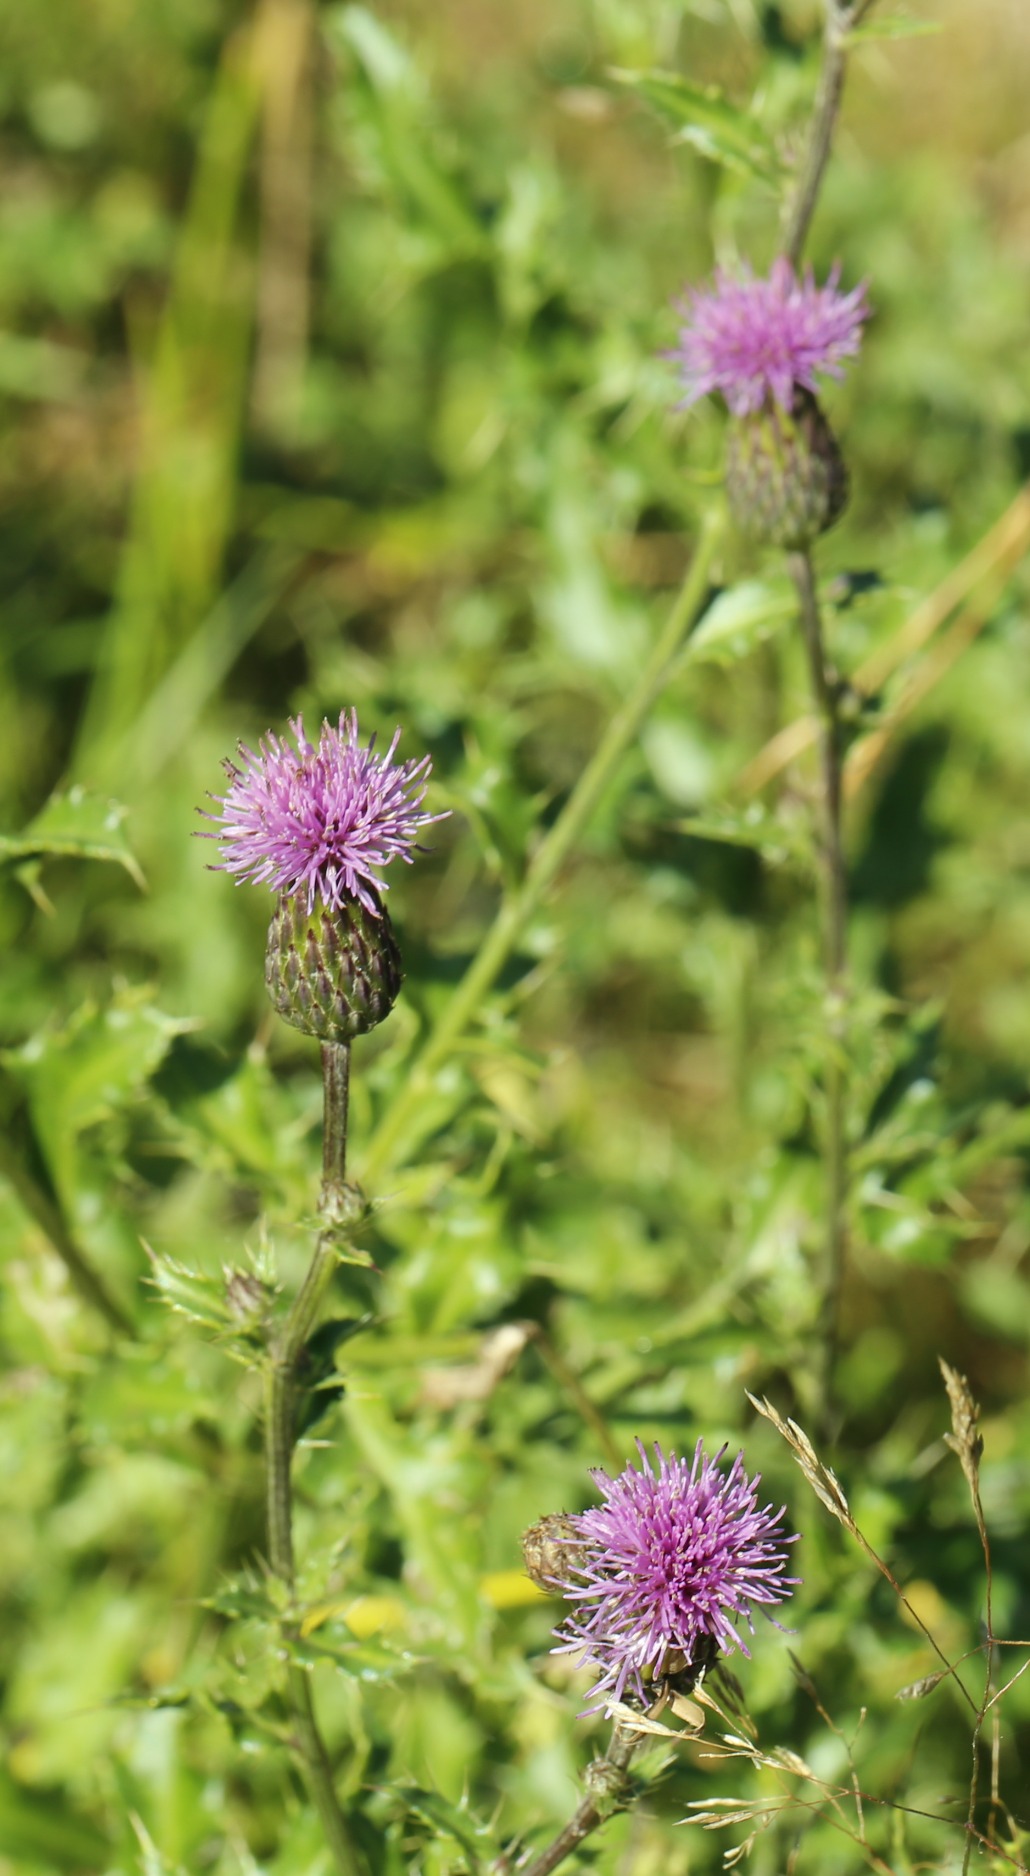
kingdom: Plantae
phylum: Tracheophyta
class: Magnoliopsida
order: Asterales
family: Asteraceae
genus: Cirsium
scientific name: Cirsium arvense
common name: Ager-tidsel
